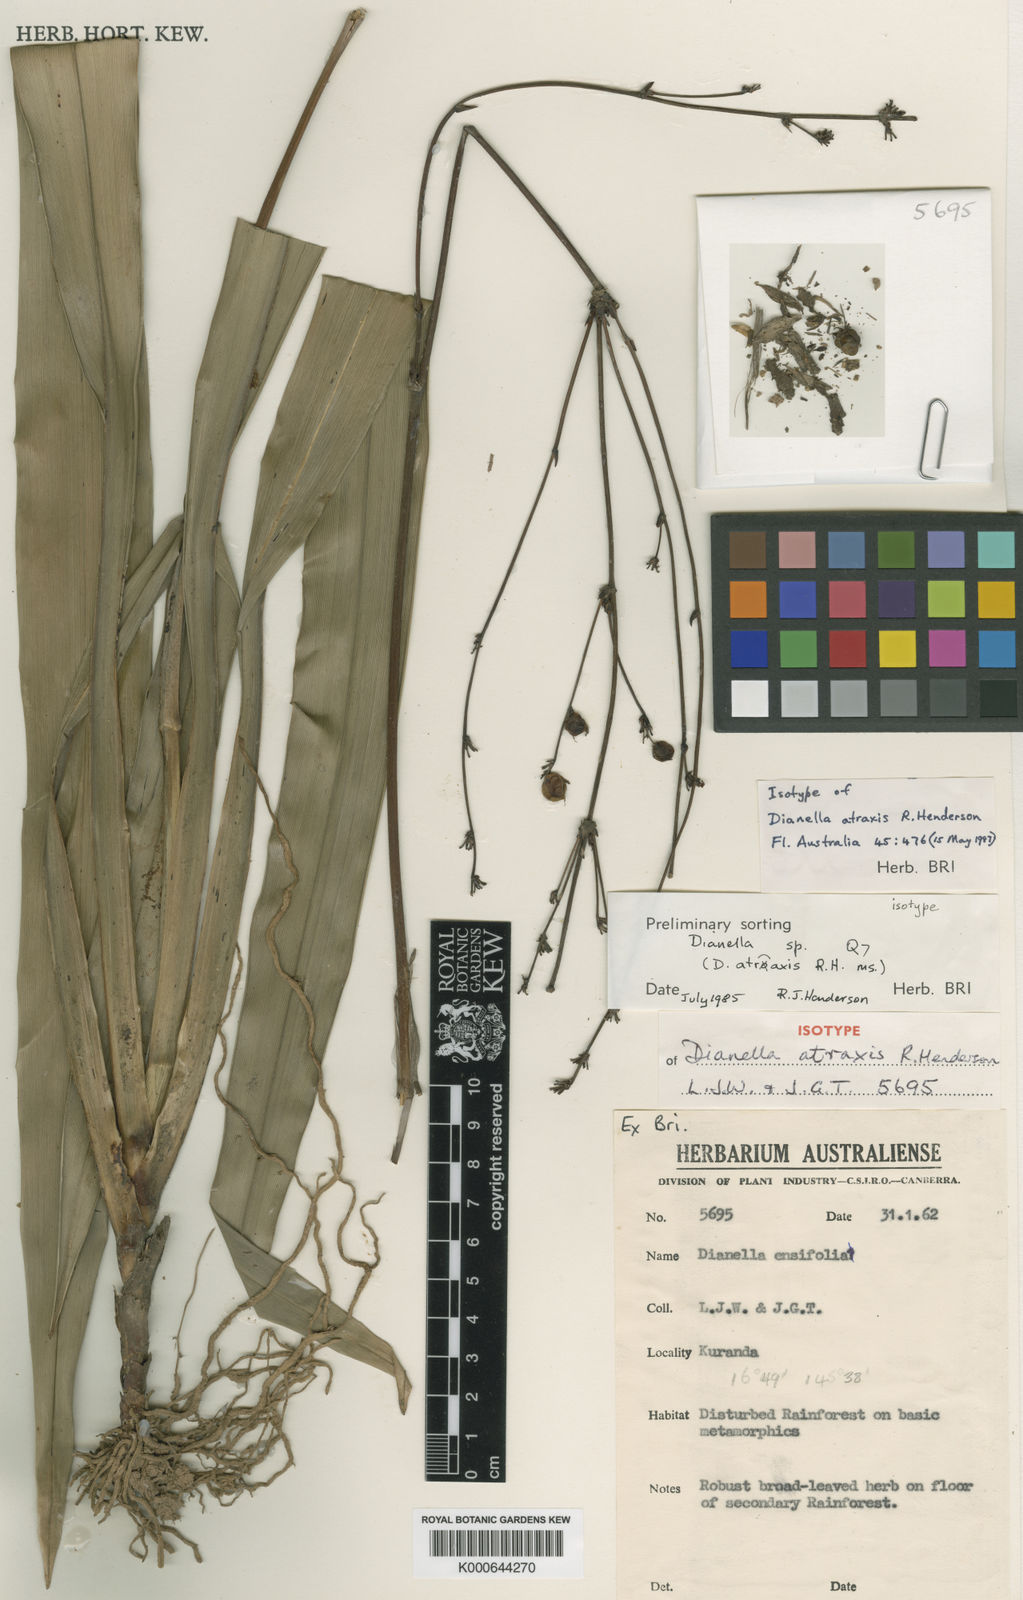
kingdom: Plantae
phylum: Tracheophyta
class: Liliopsida
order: Asparagales
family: Asphodelaceae
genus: Dianella
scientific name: Dianella atraxis
